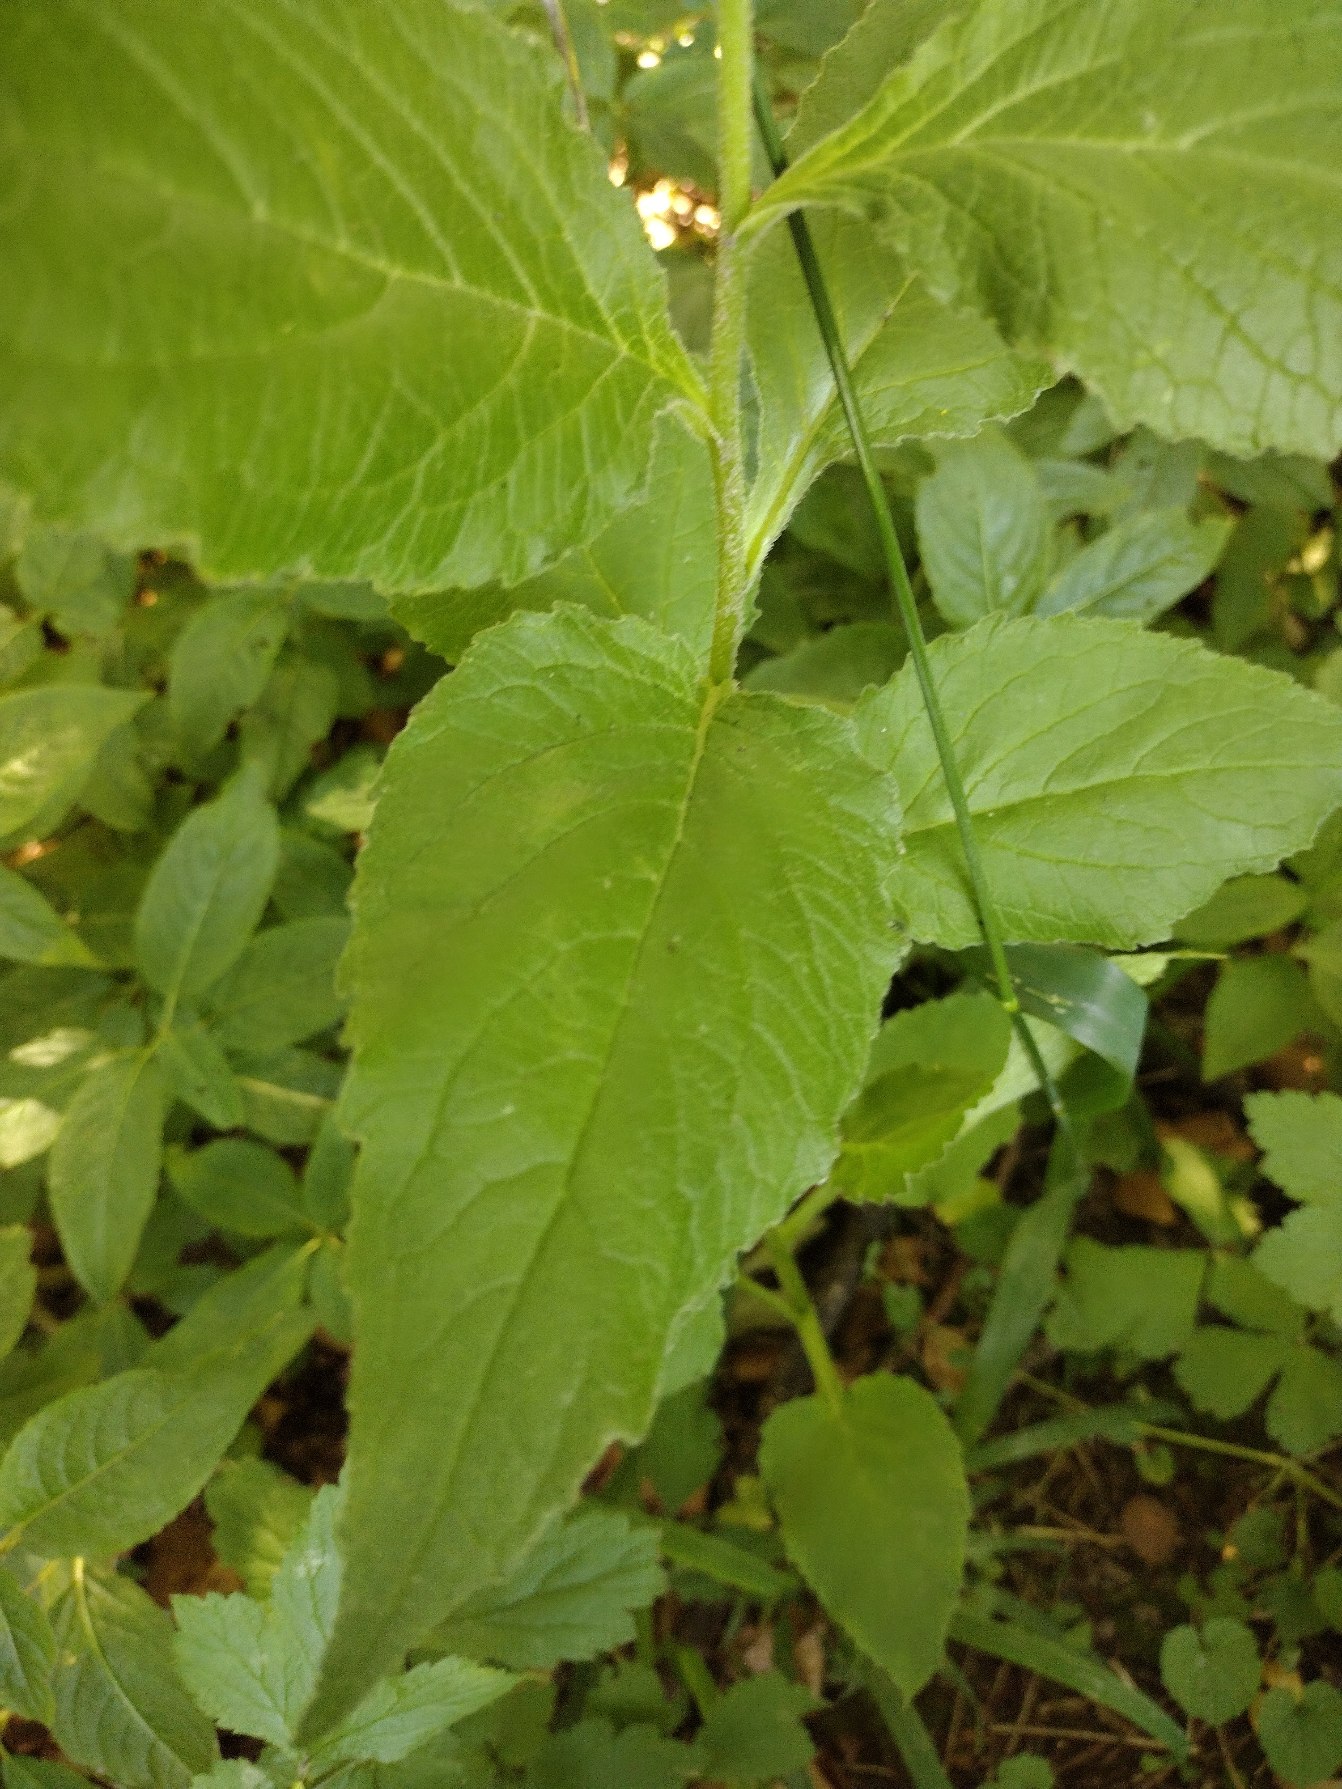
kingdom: Plantae
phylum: Tracheophyta
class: Magnoliopsida
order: Asterales
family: Campanulaceae
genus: Campanula
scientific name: Campanula latifolia
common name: Bredbladet klokke
